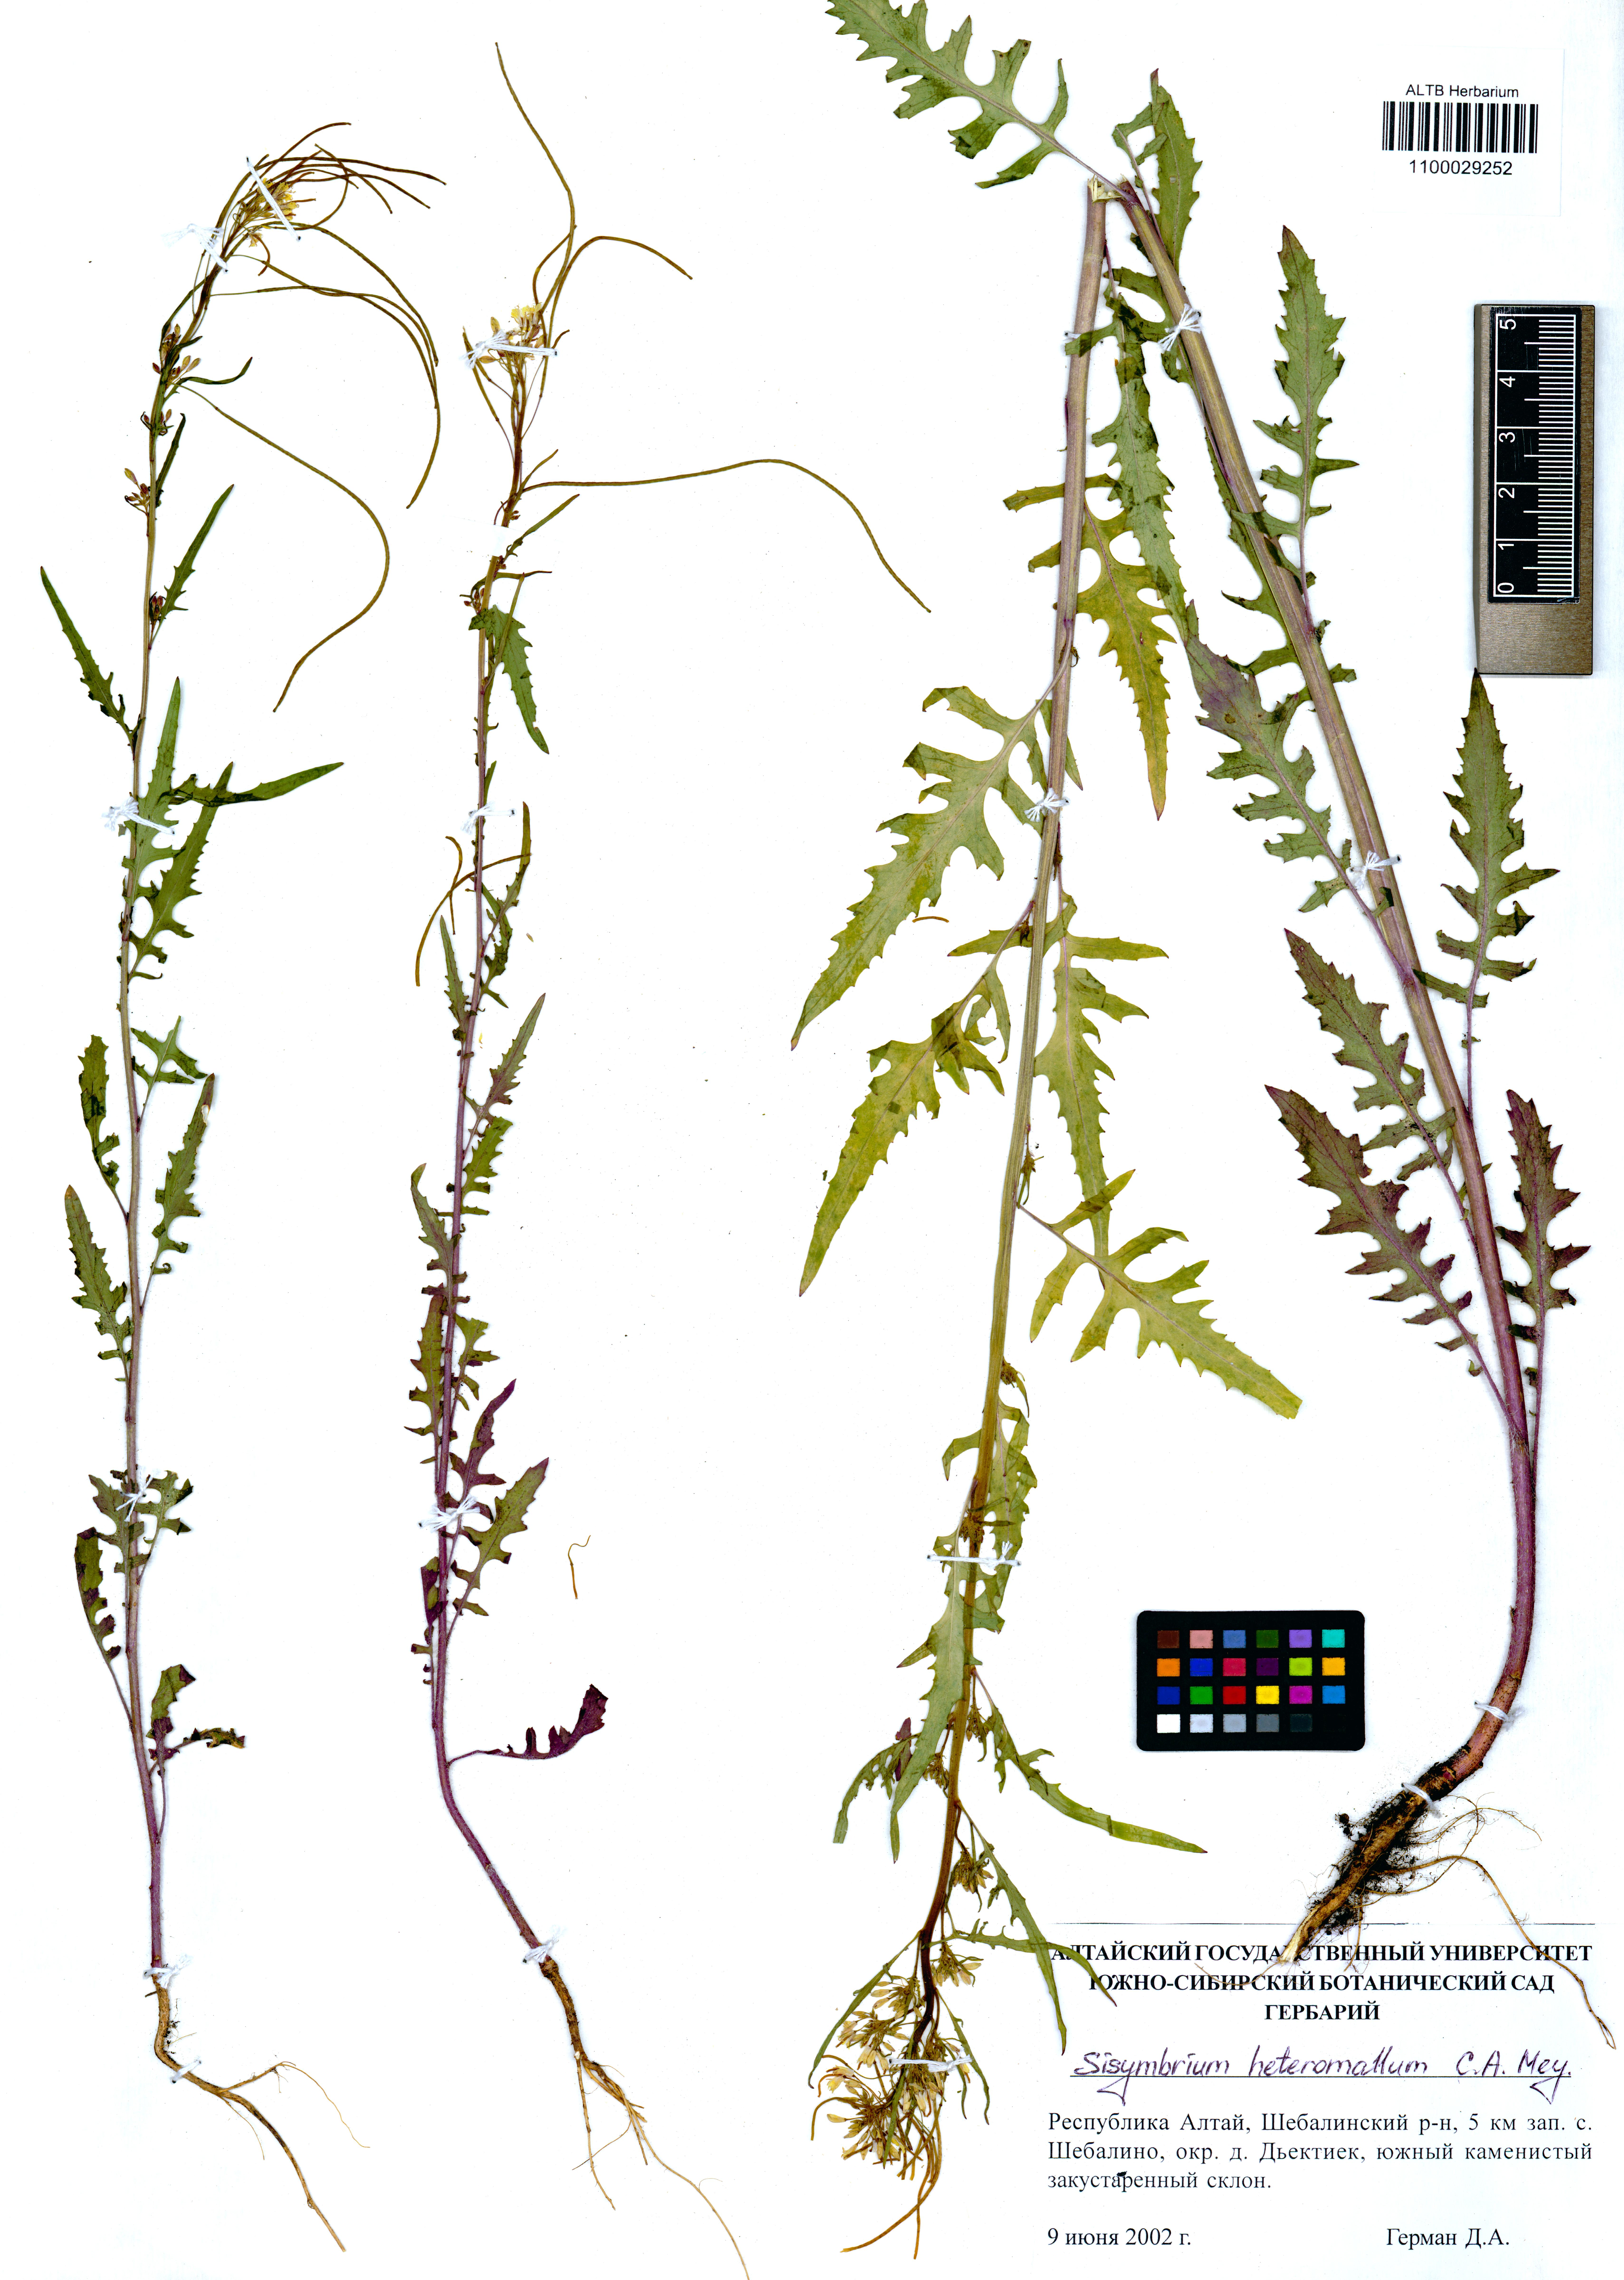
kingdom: Plantae
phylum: Tracheophyta
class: Magnoliopsida
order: Brassicales
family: Brassicaceae
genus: Sisymbrium
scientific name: Sisymbrium heteromallum
